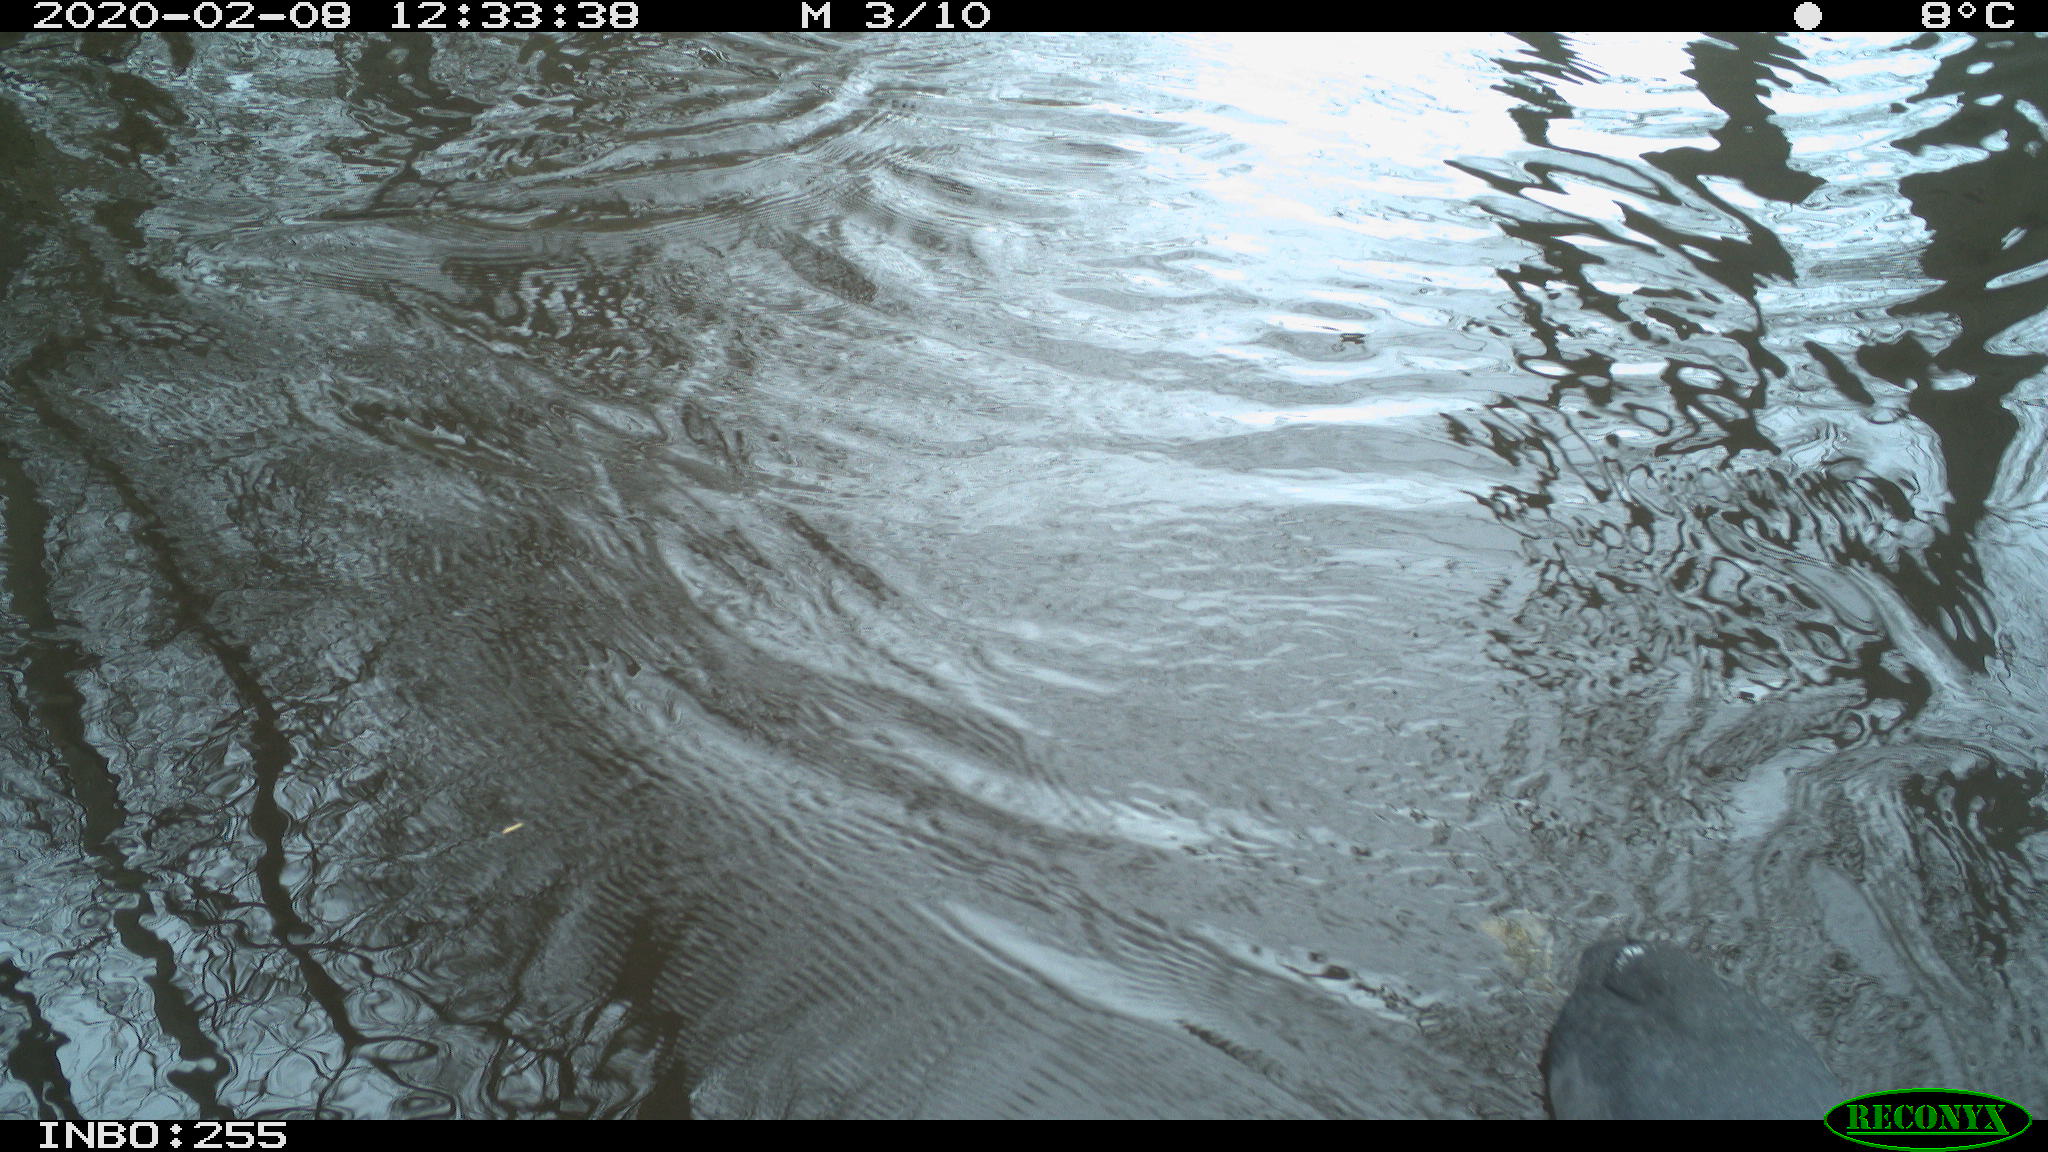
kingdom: Animalia
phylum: Chordata
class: Aves
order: Gruiformes
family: Rallidae
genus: Fulica
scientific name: Fulica atra
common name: Eurasian coot
